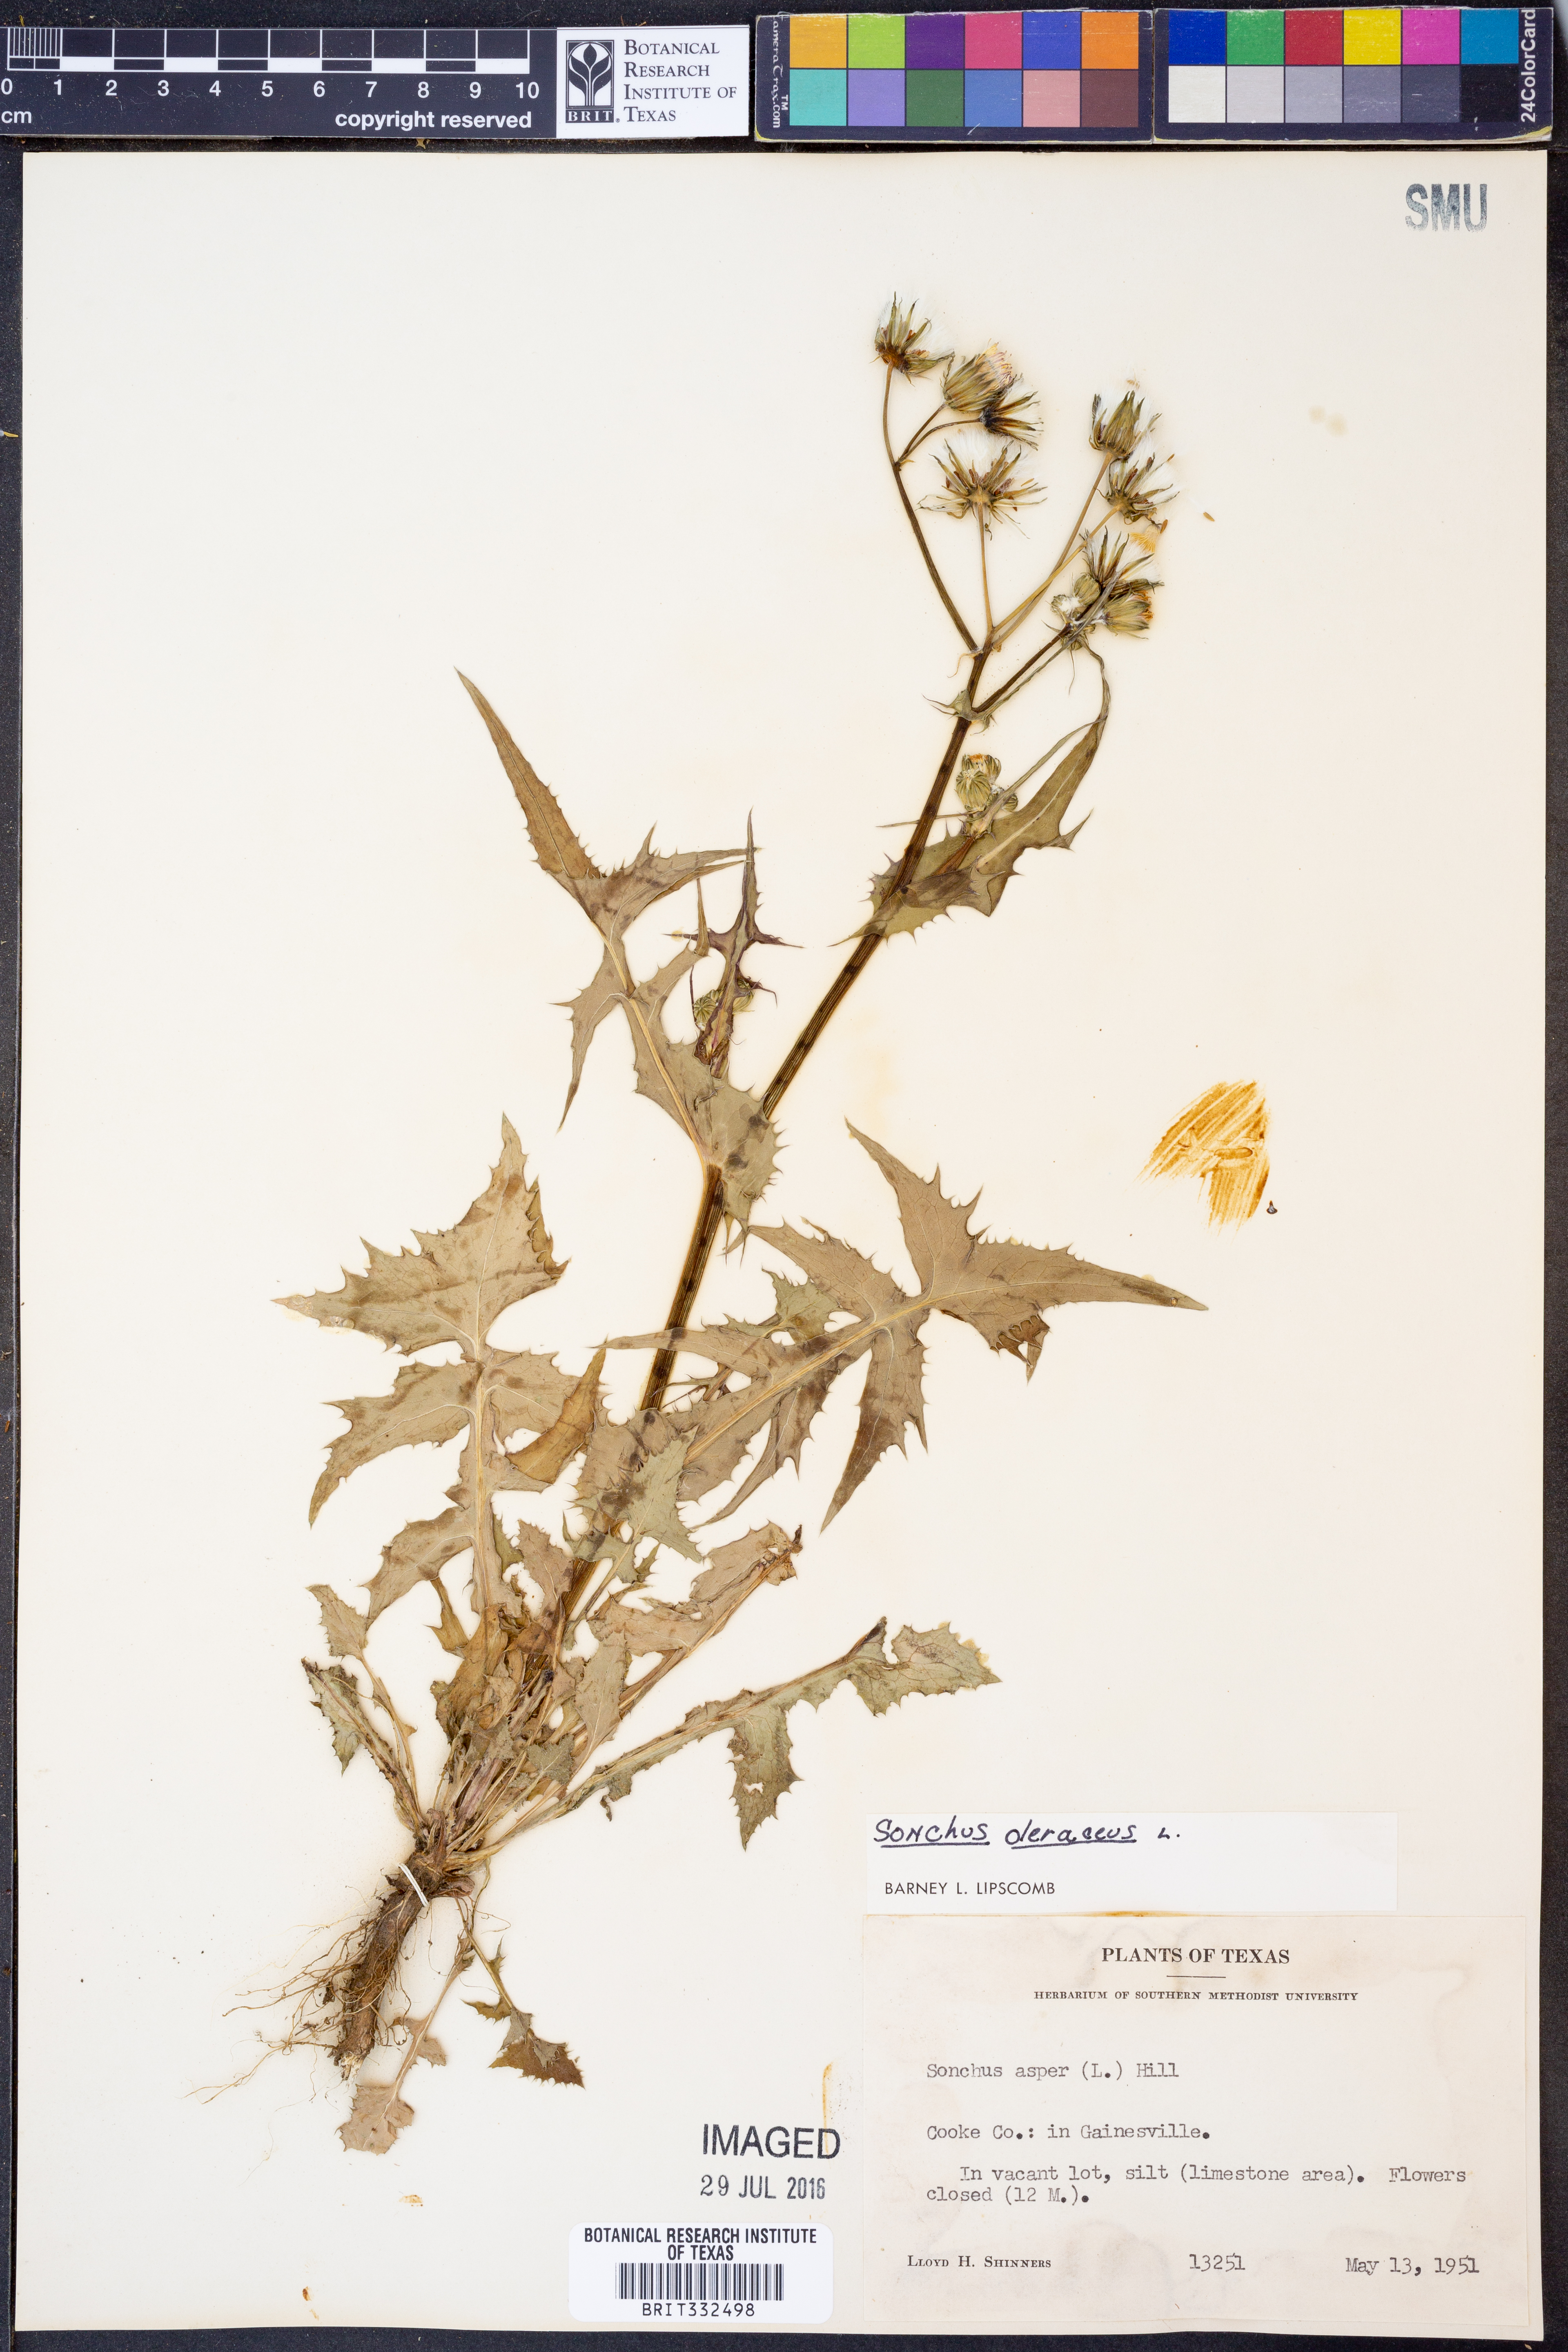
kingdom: Plantae
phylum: Tracheophyta
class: Magnoliopsida
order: Asterales
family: Asteraceae
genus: Sonchus
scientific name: Sonchus oleraceus
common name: Common sowthistle
